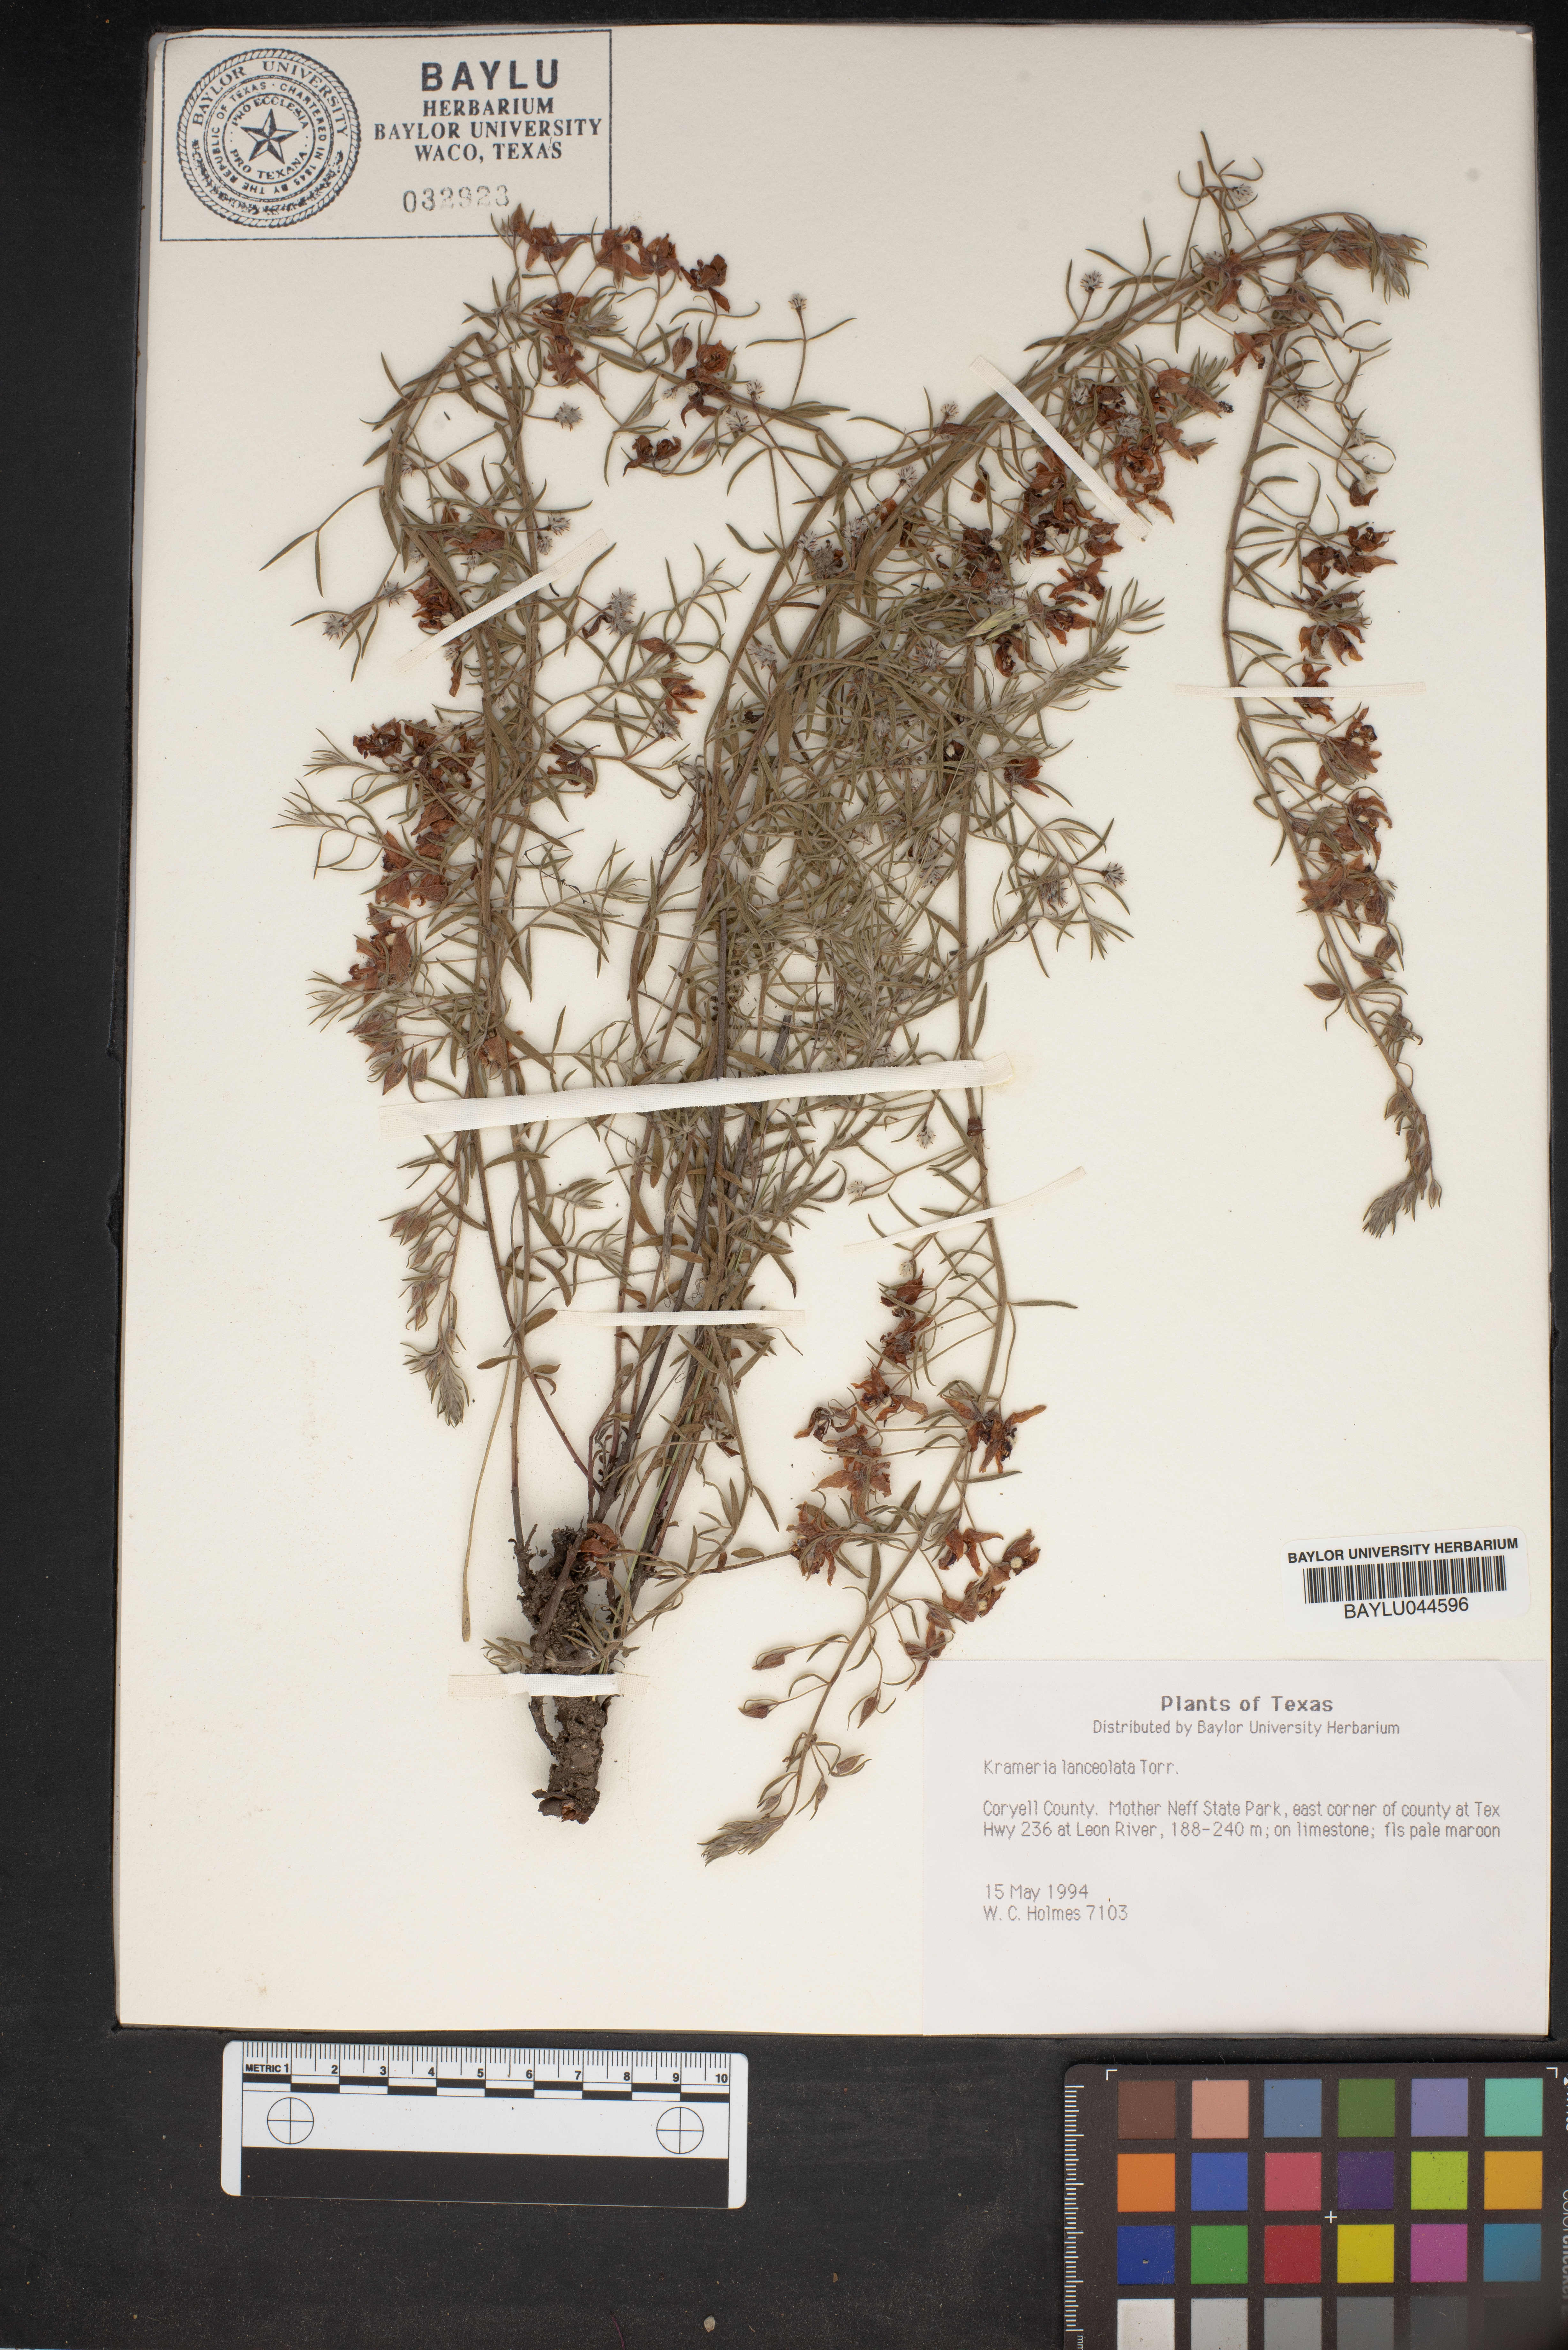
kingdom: Plantae
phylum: Tracheophyta
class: Magnoliopsida
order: Zygophyllales
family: Krameriaceae
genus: Krameria
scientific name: Krameria lanceolata
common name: Ratany
